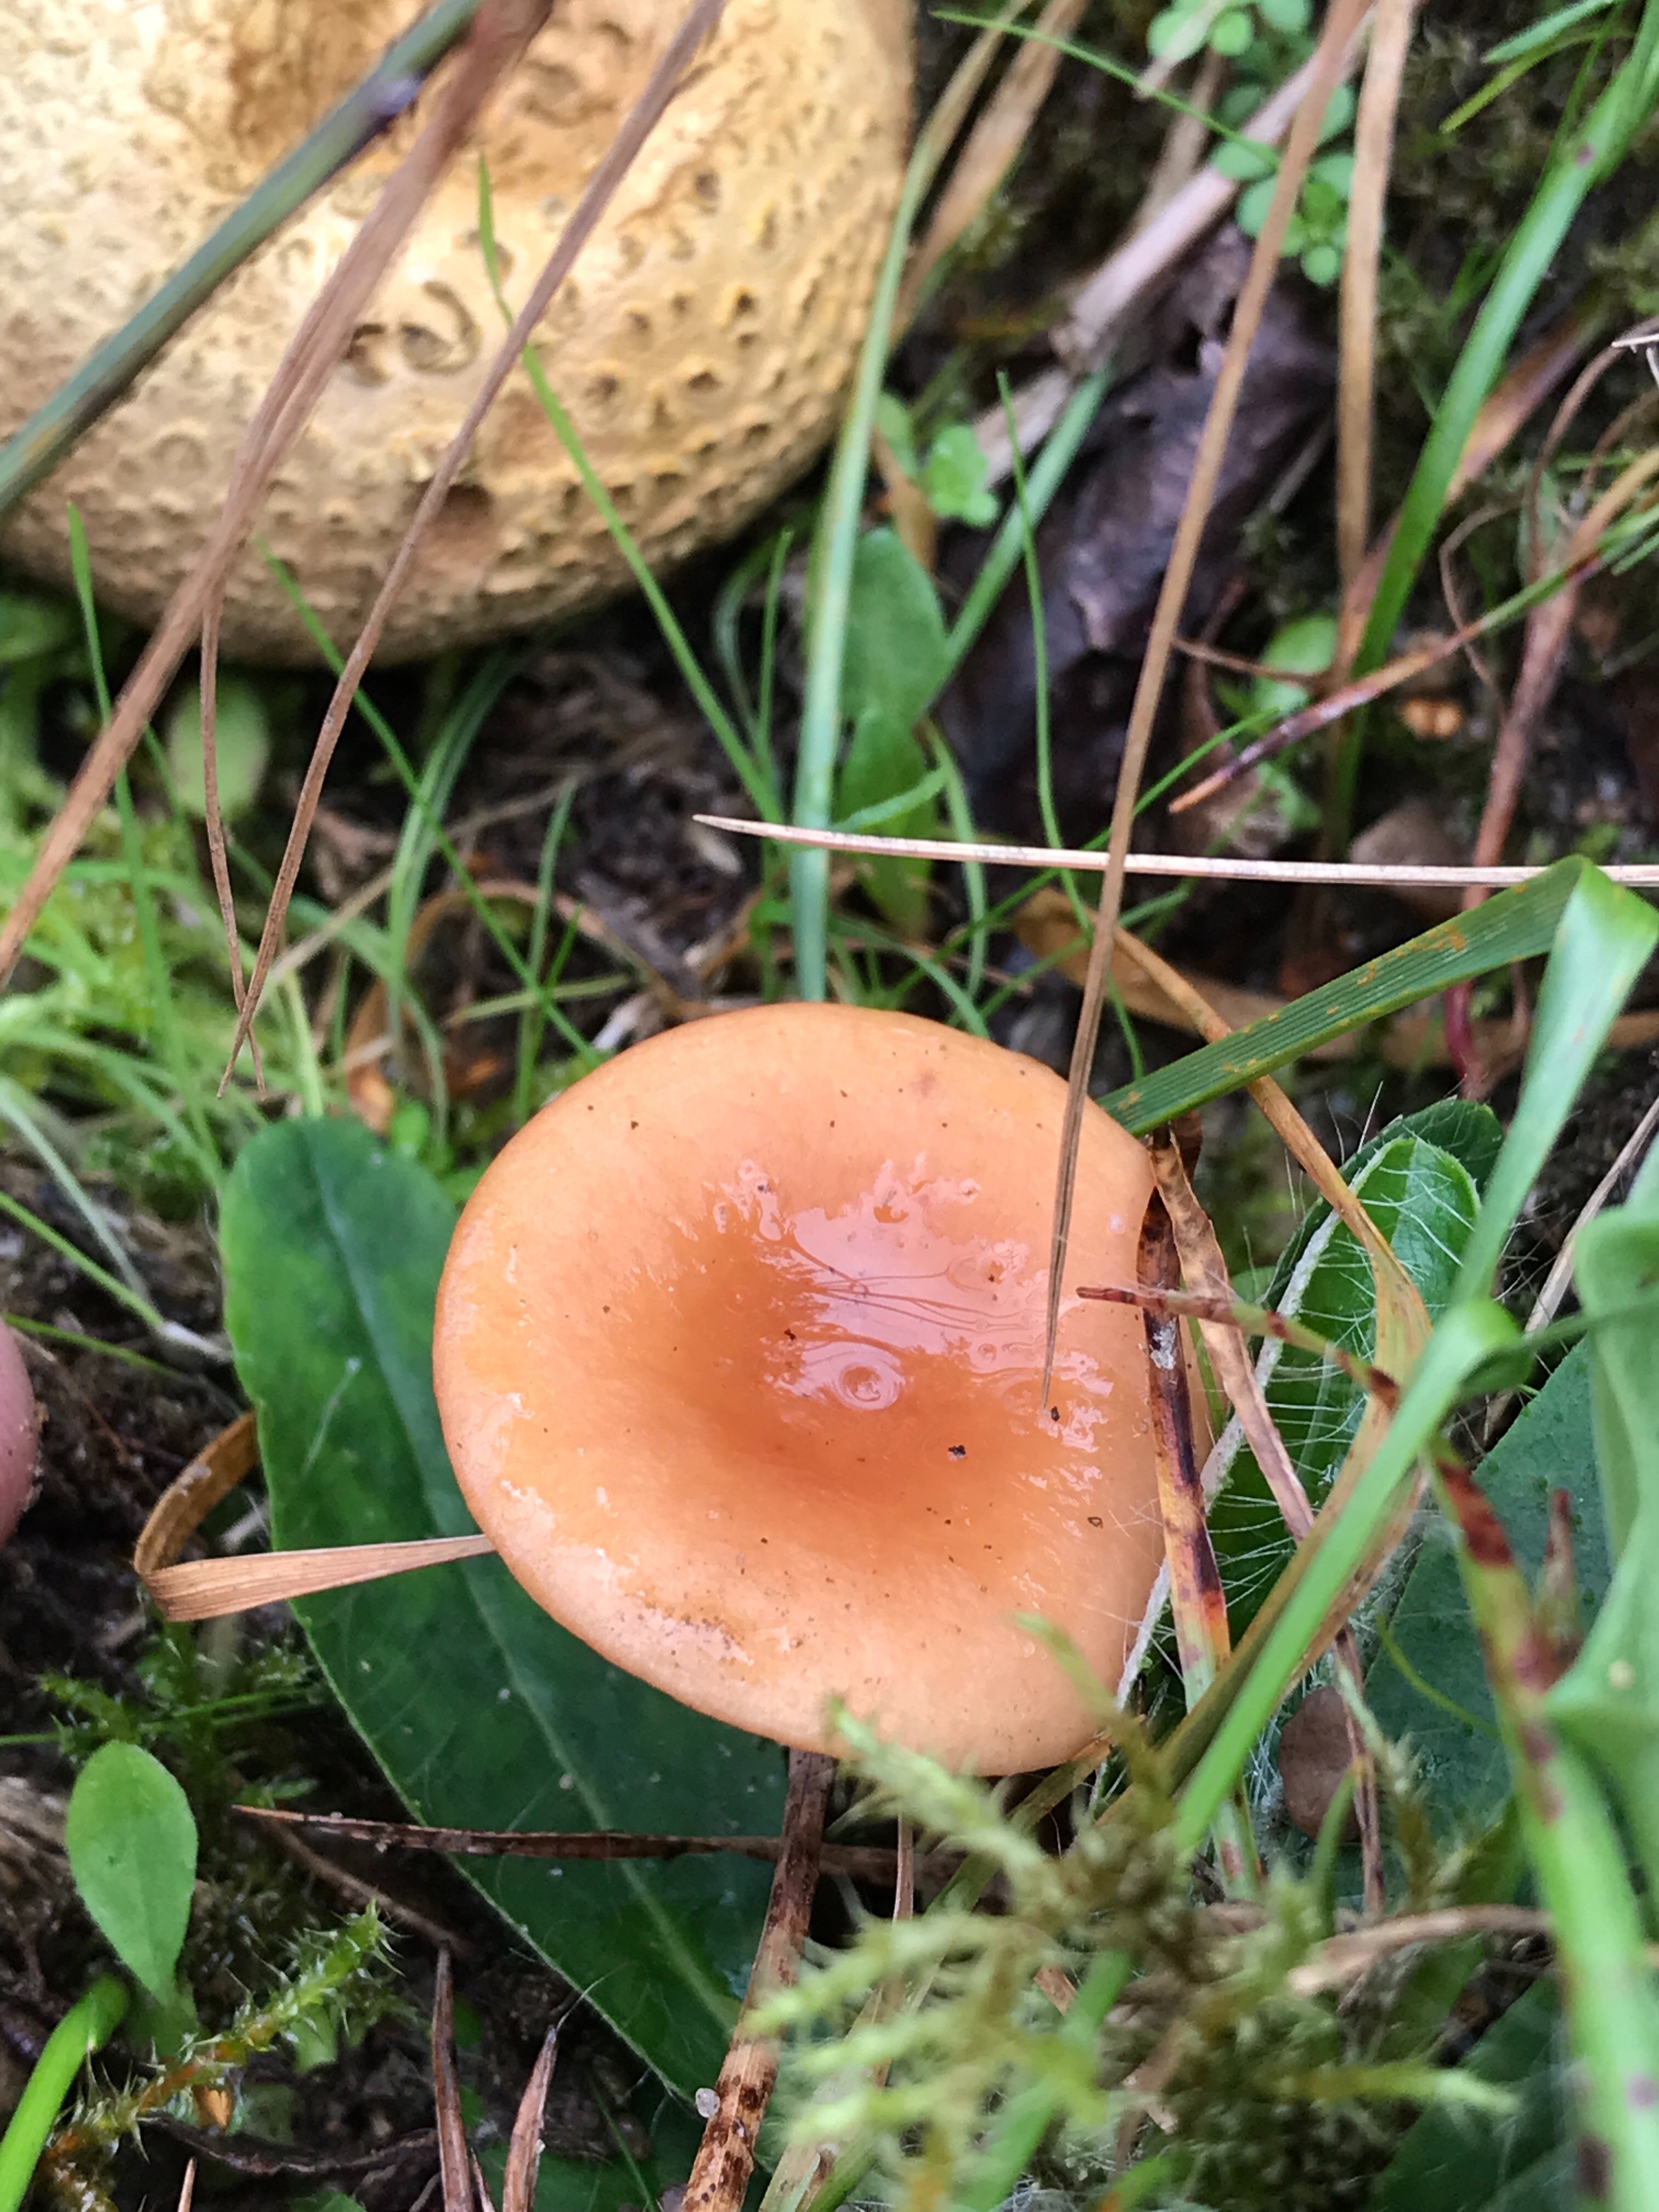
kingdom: Fungi
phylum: Basidiomycota
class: Agaricomycetes
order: Russulales
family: Russulaceae
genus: Lactarius
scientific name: Lactarius tabidus
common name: rynket mælkehat
